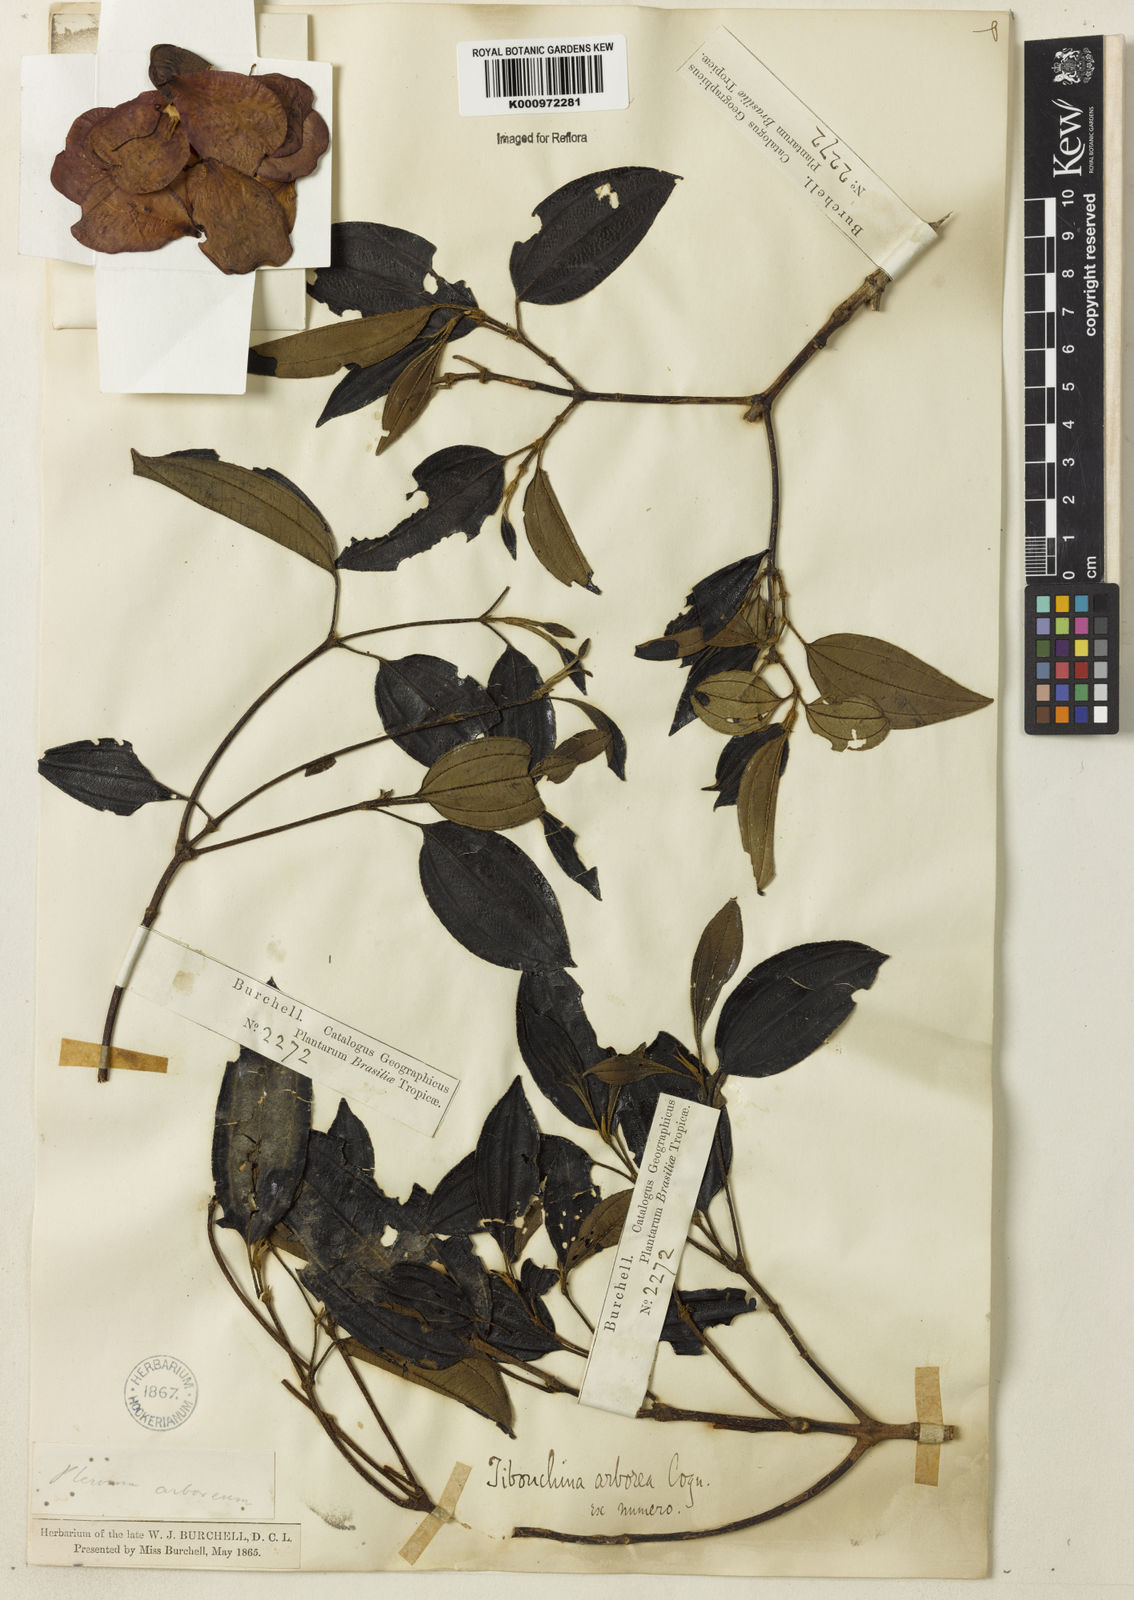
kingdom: Plantae
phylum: Tracheophyta
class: Magnoliopsida
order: Myrtales
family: Melastomataceae
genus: Pleroma
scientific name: Pleroma arboreum
